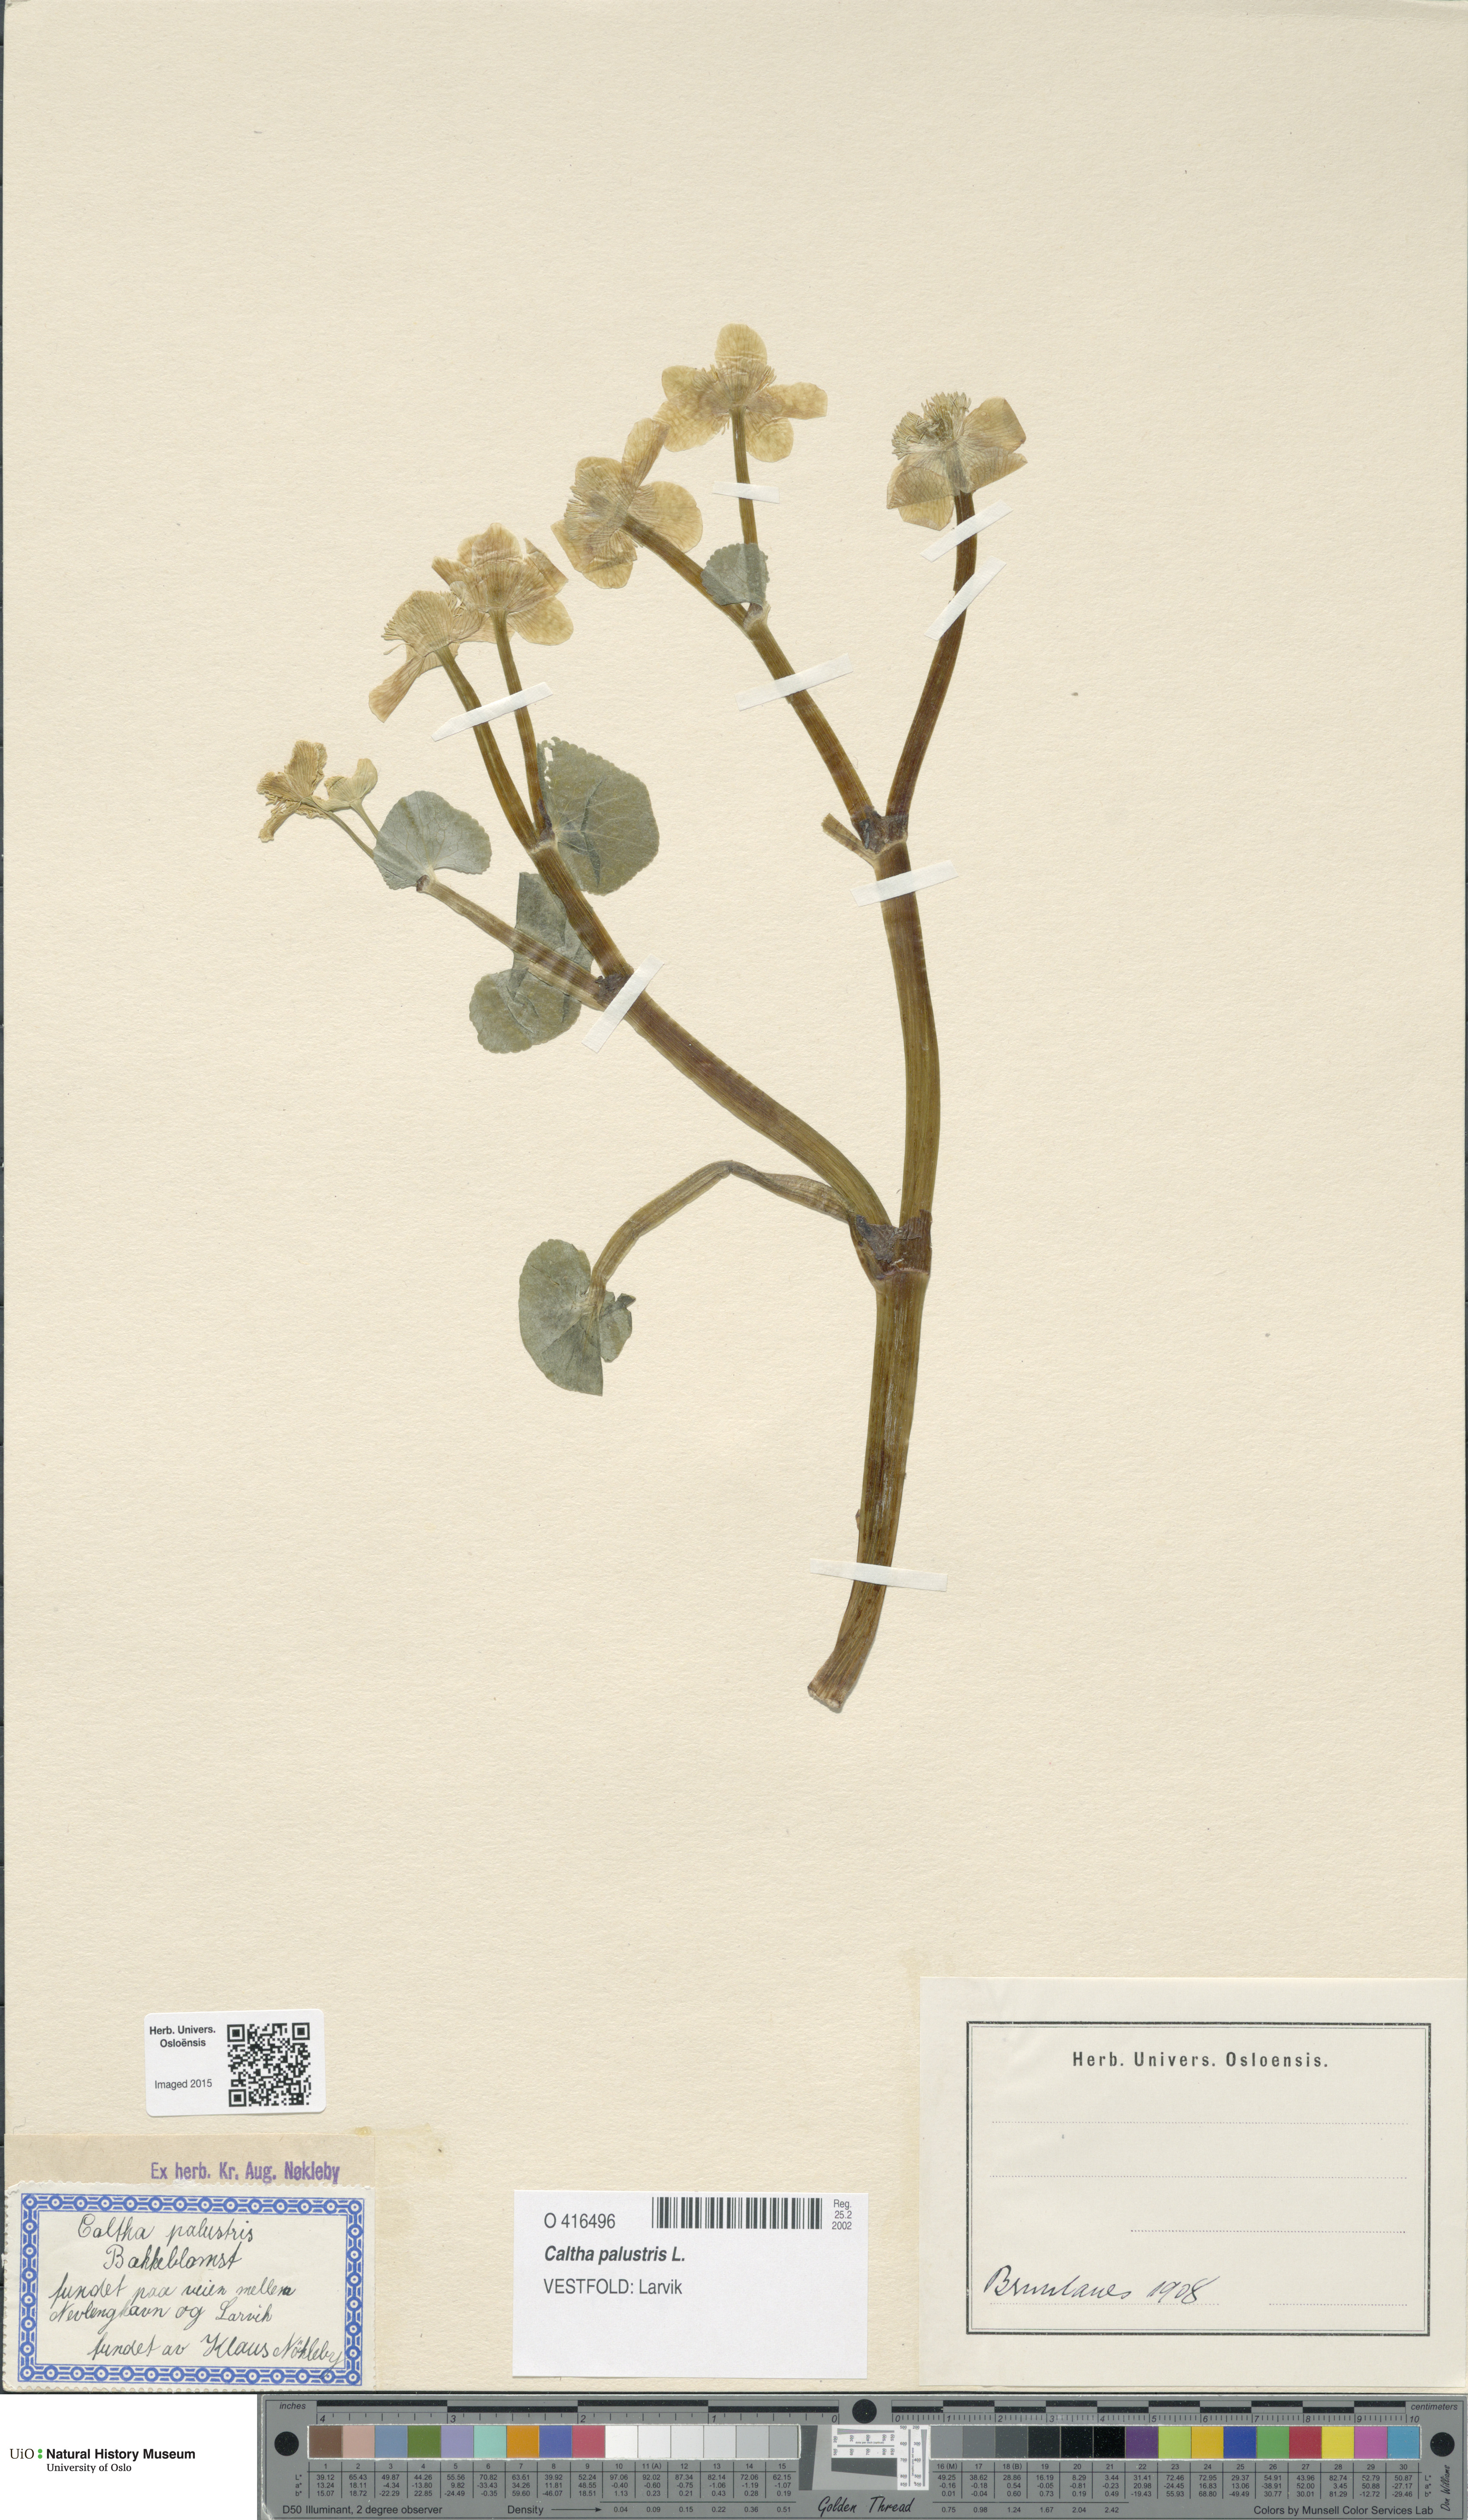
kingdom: Plantae
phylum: Tracheophyta
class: Magnoliopsida
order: Ranunculales
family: Ranunculaceae
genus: Caltha
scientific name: Caltha palustris
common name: Marsh marigold
